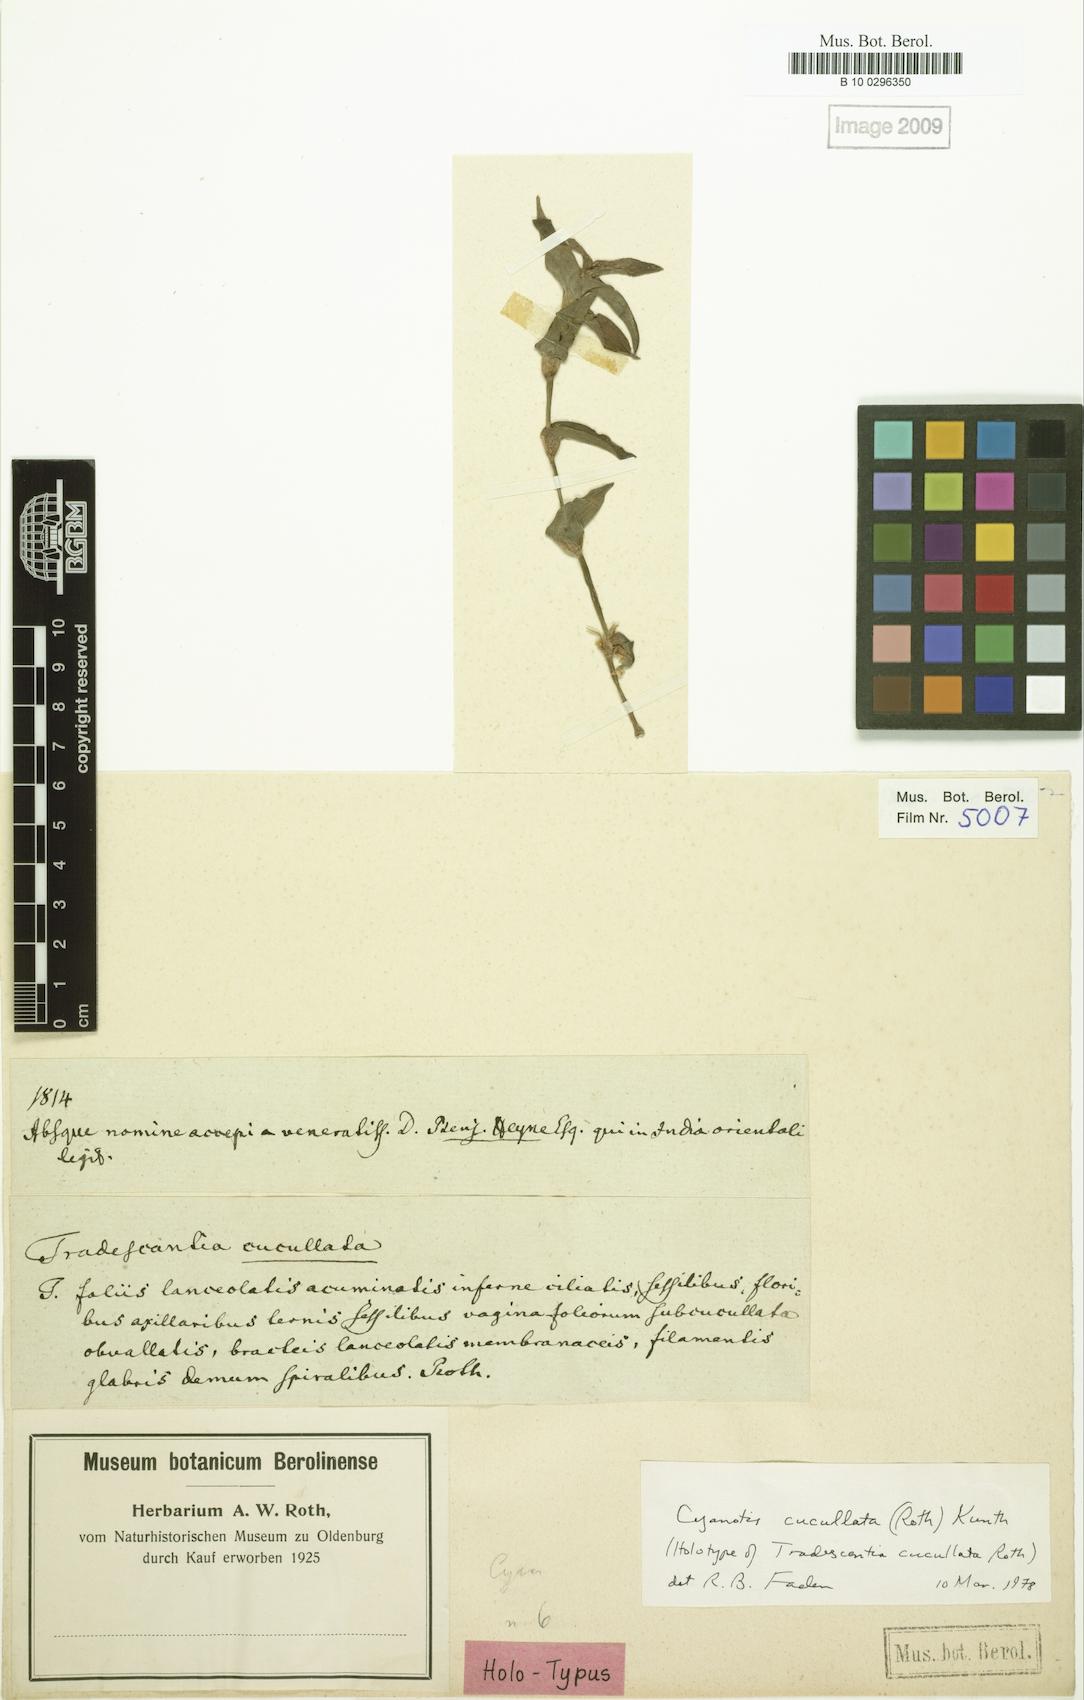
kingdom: Plantae
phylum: Tracheophyta
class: Liliopsida
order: Commelinales
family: Commelinaceae
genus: Cyanotis
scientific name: Cyanotis cucullata
